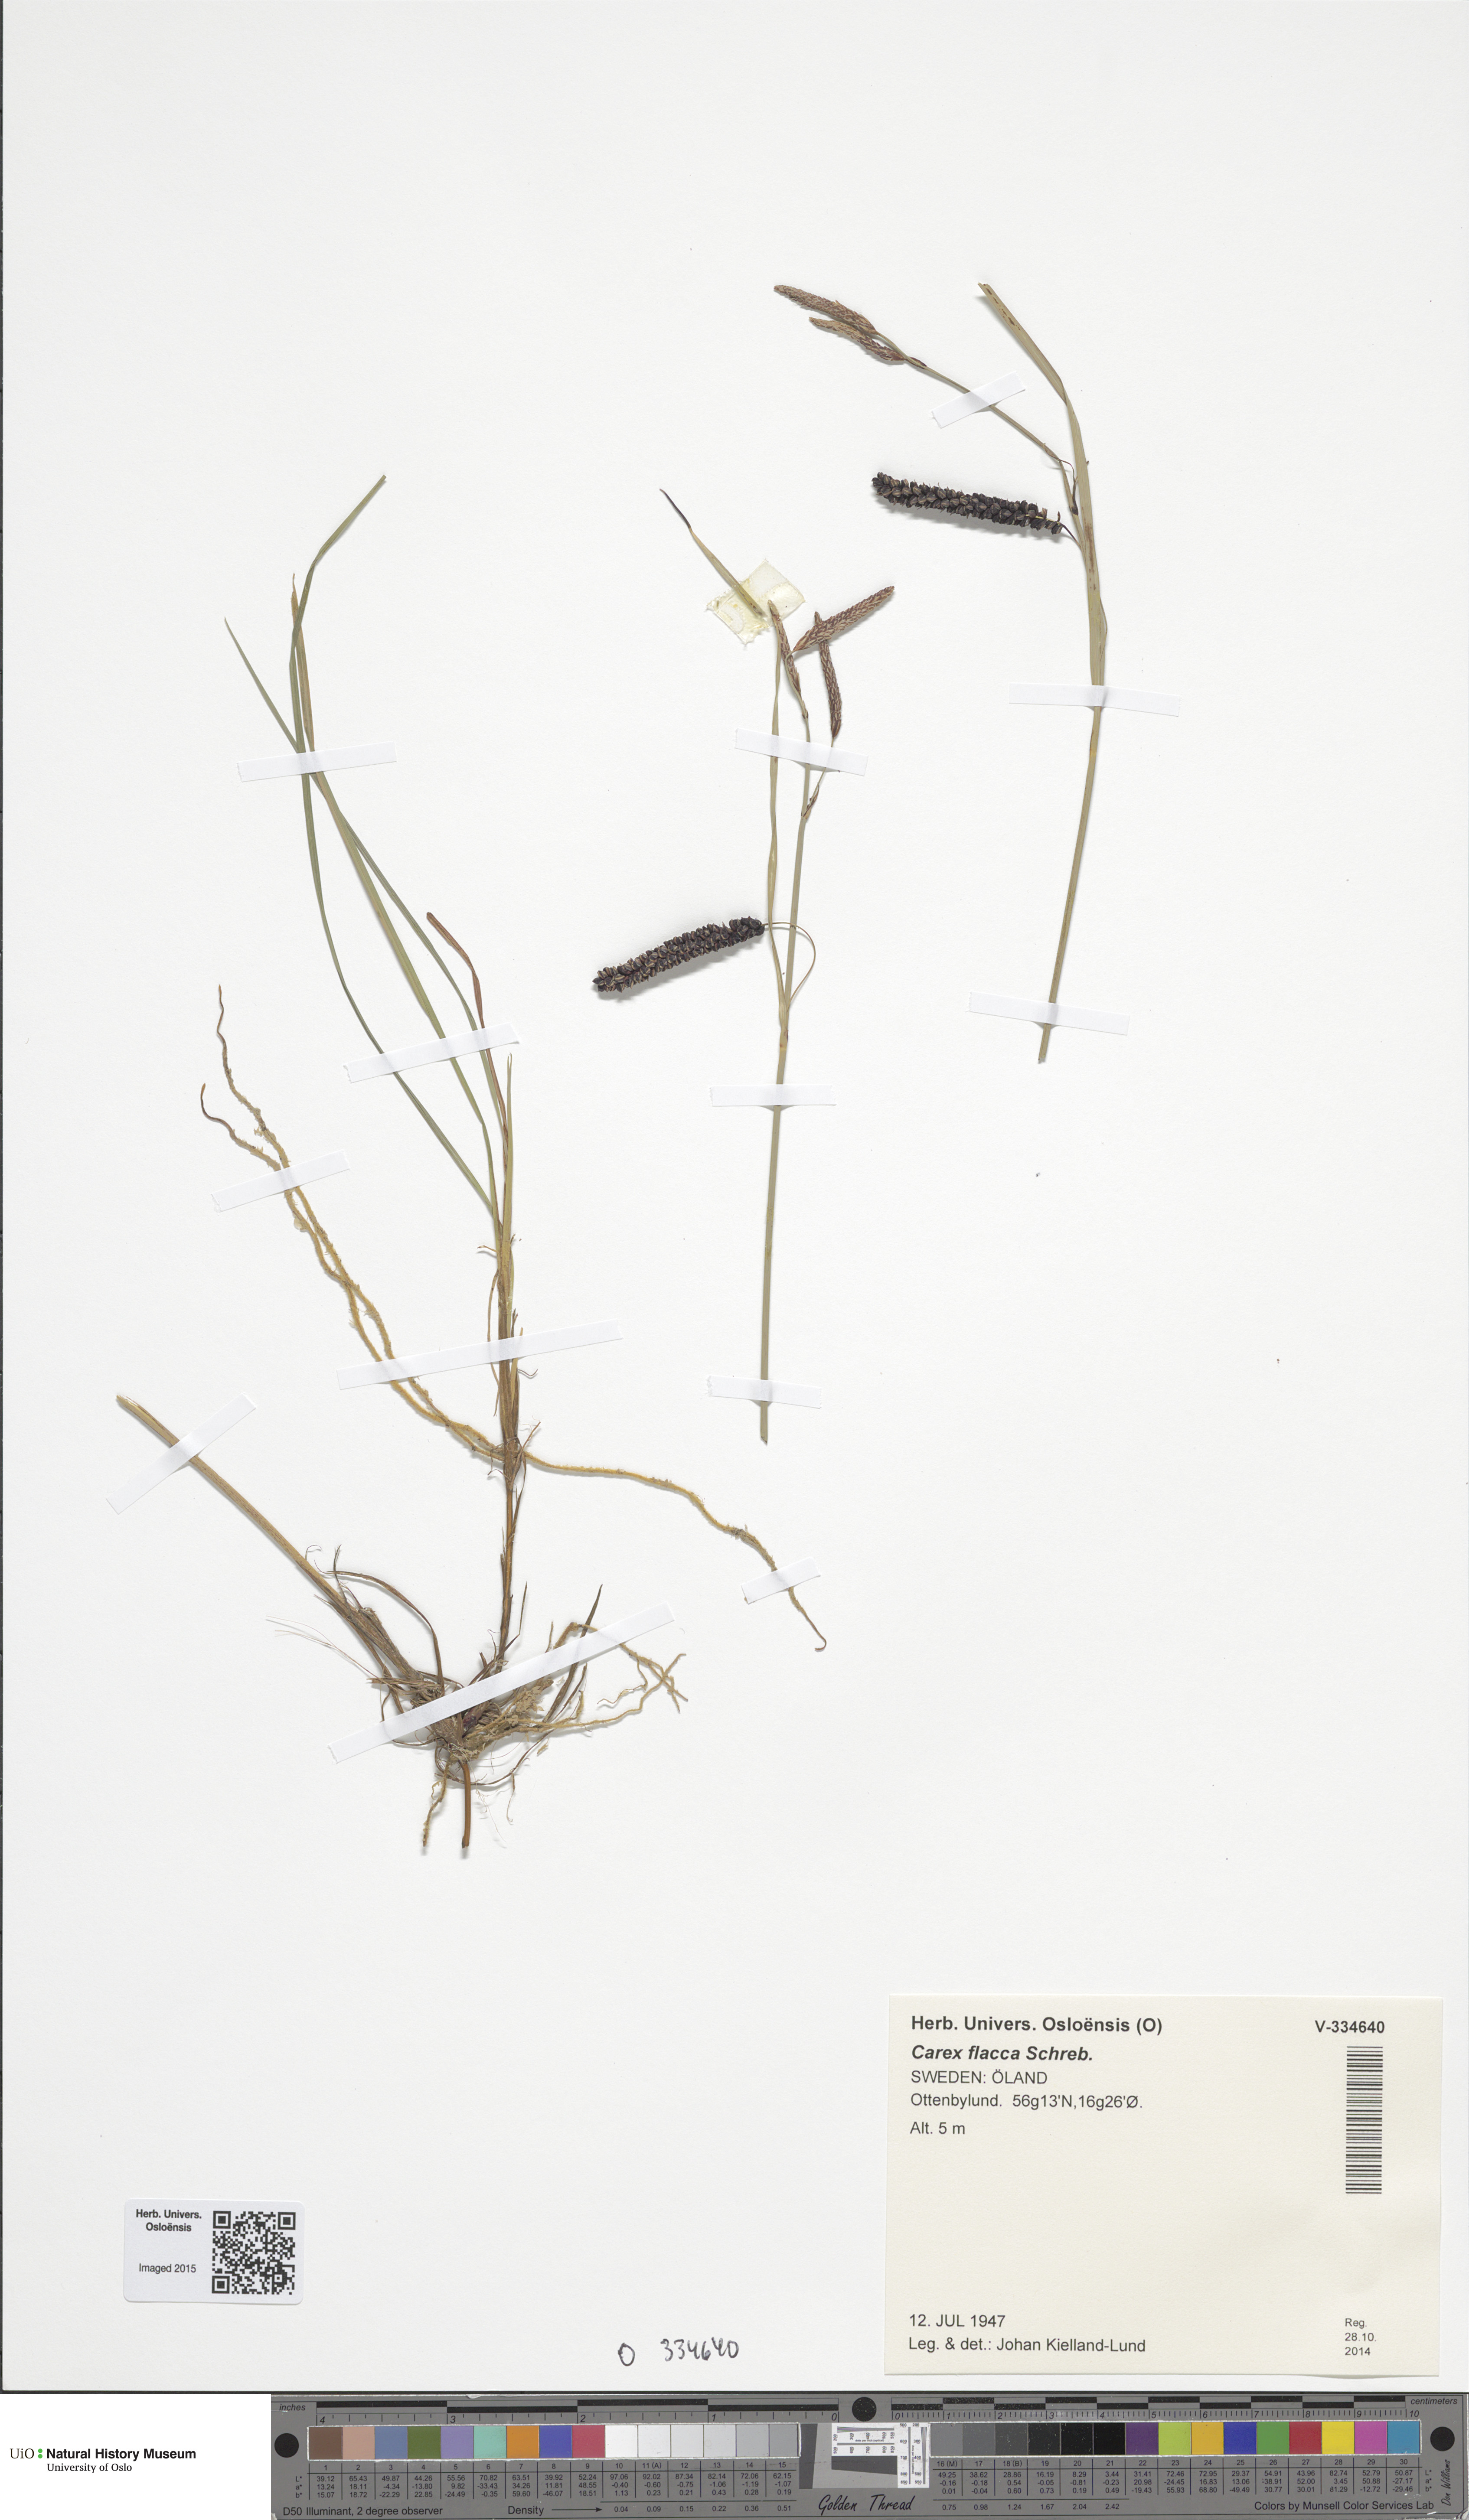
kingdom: Plantae
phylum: Tracheophyta
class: Liliopsida
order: Poales
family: Cyperaceae
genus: Carex
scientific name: Carex flacca
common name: Glaucous sedge
